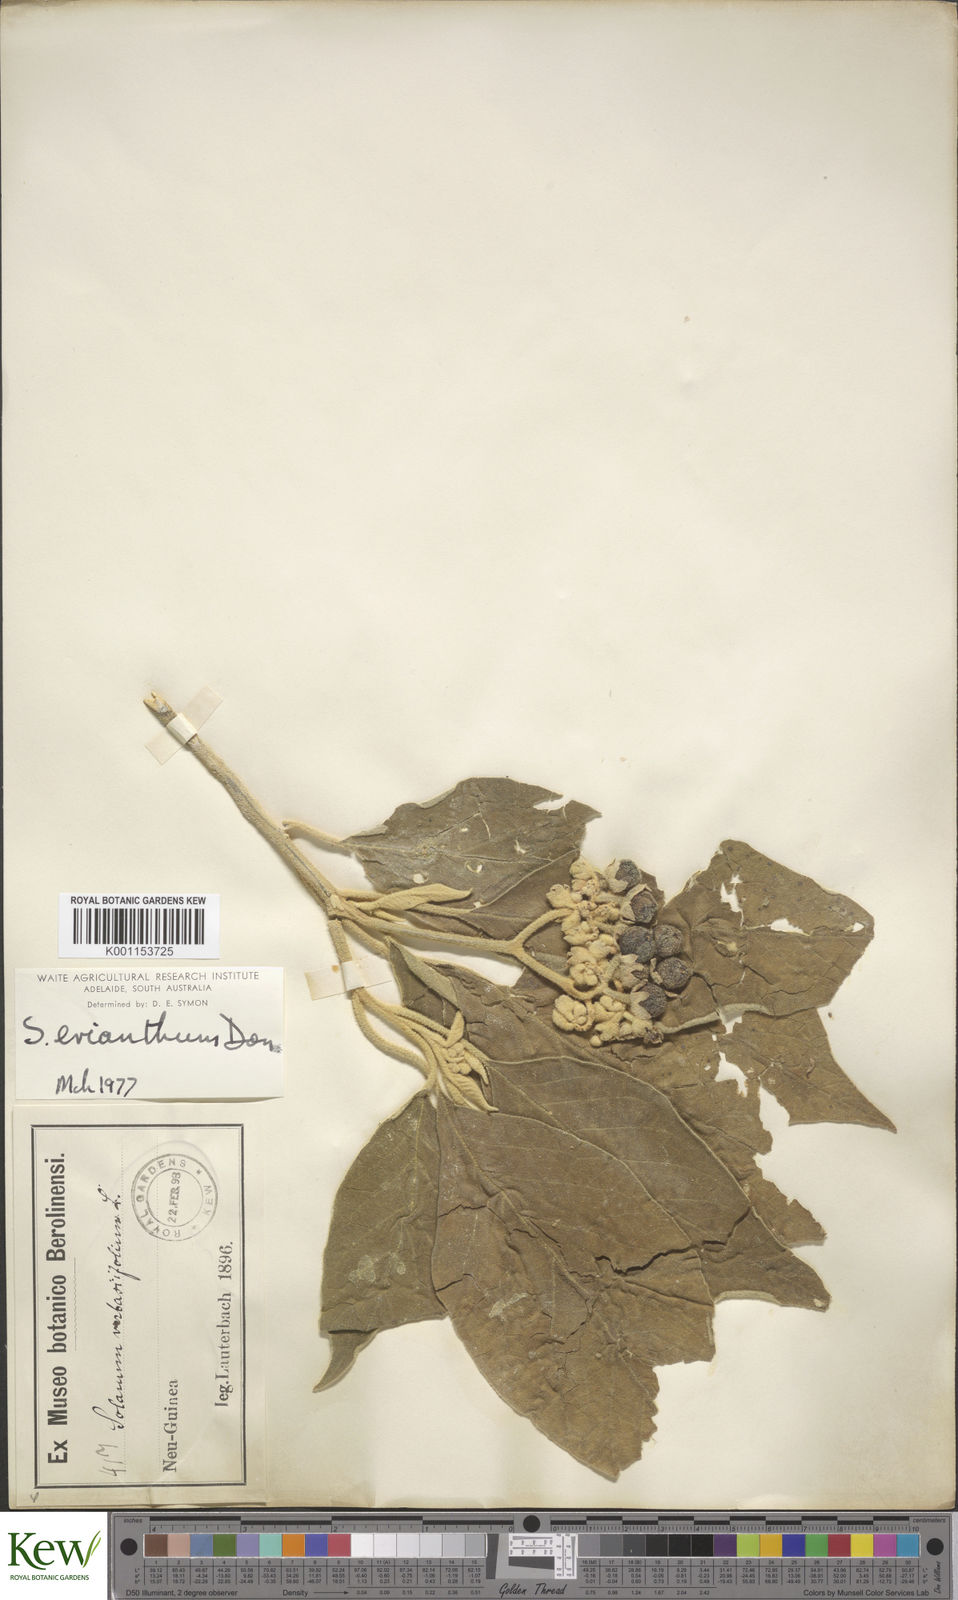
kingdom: Plantae
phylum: Tracheophyta
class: Magnoliopsida
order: Solanales
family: Solanaceae
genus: Solanum
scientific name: Solanum erianthum
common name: Tobacco-tree
